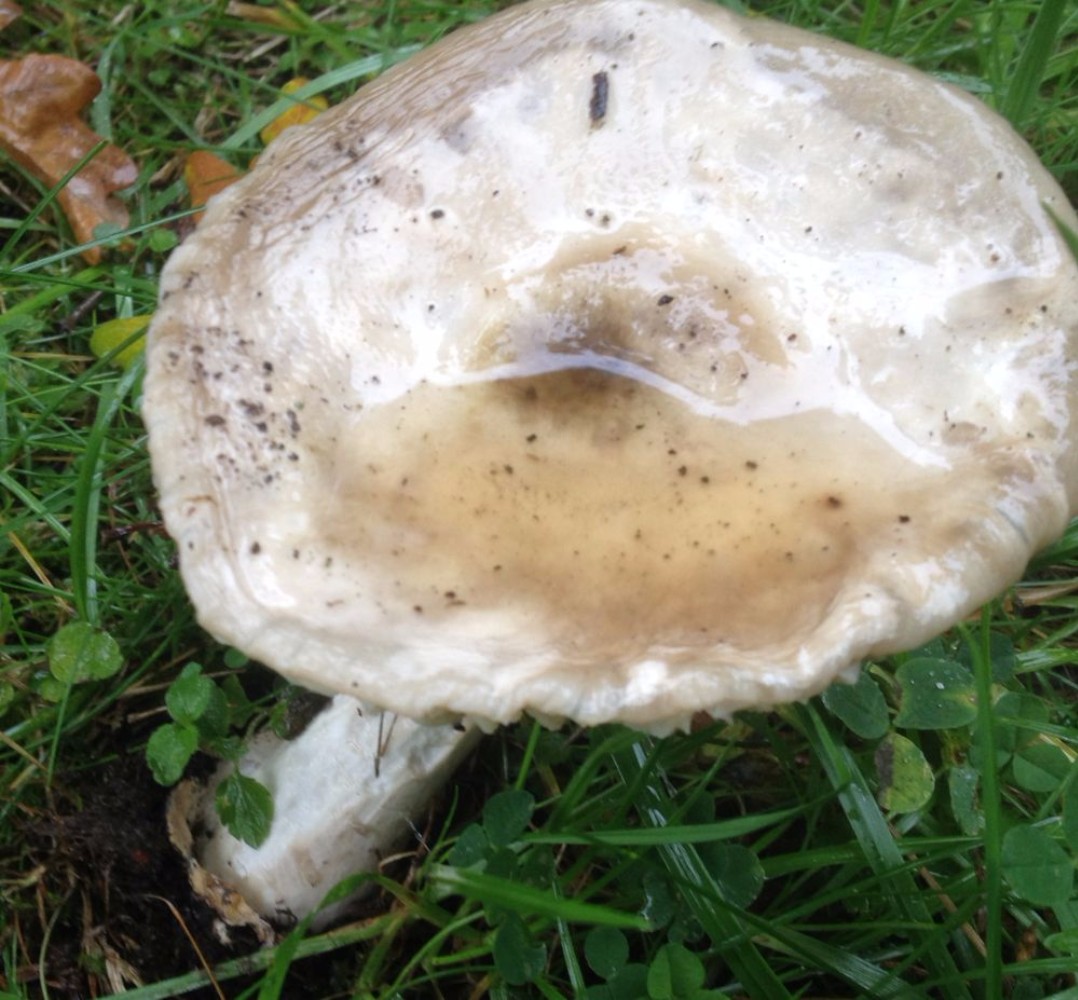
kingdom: Fungi
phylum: Basidiomycota
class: Agaricomycetes
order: Agaricales
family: Amanitaceae
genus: Amanita
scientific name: Amanita
